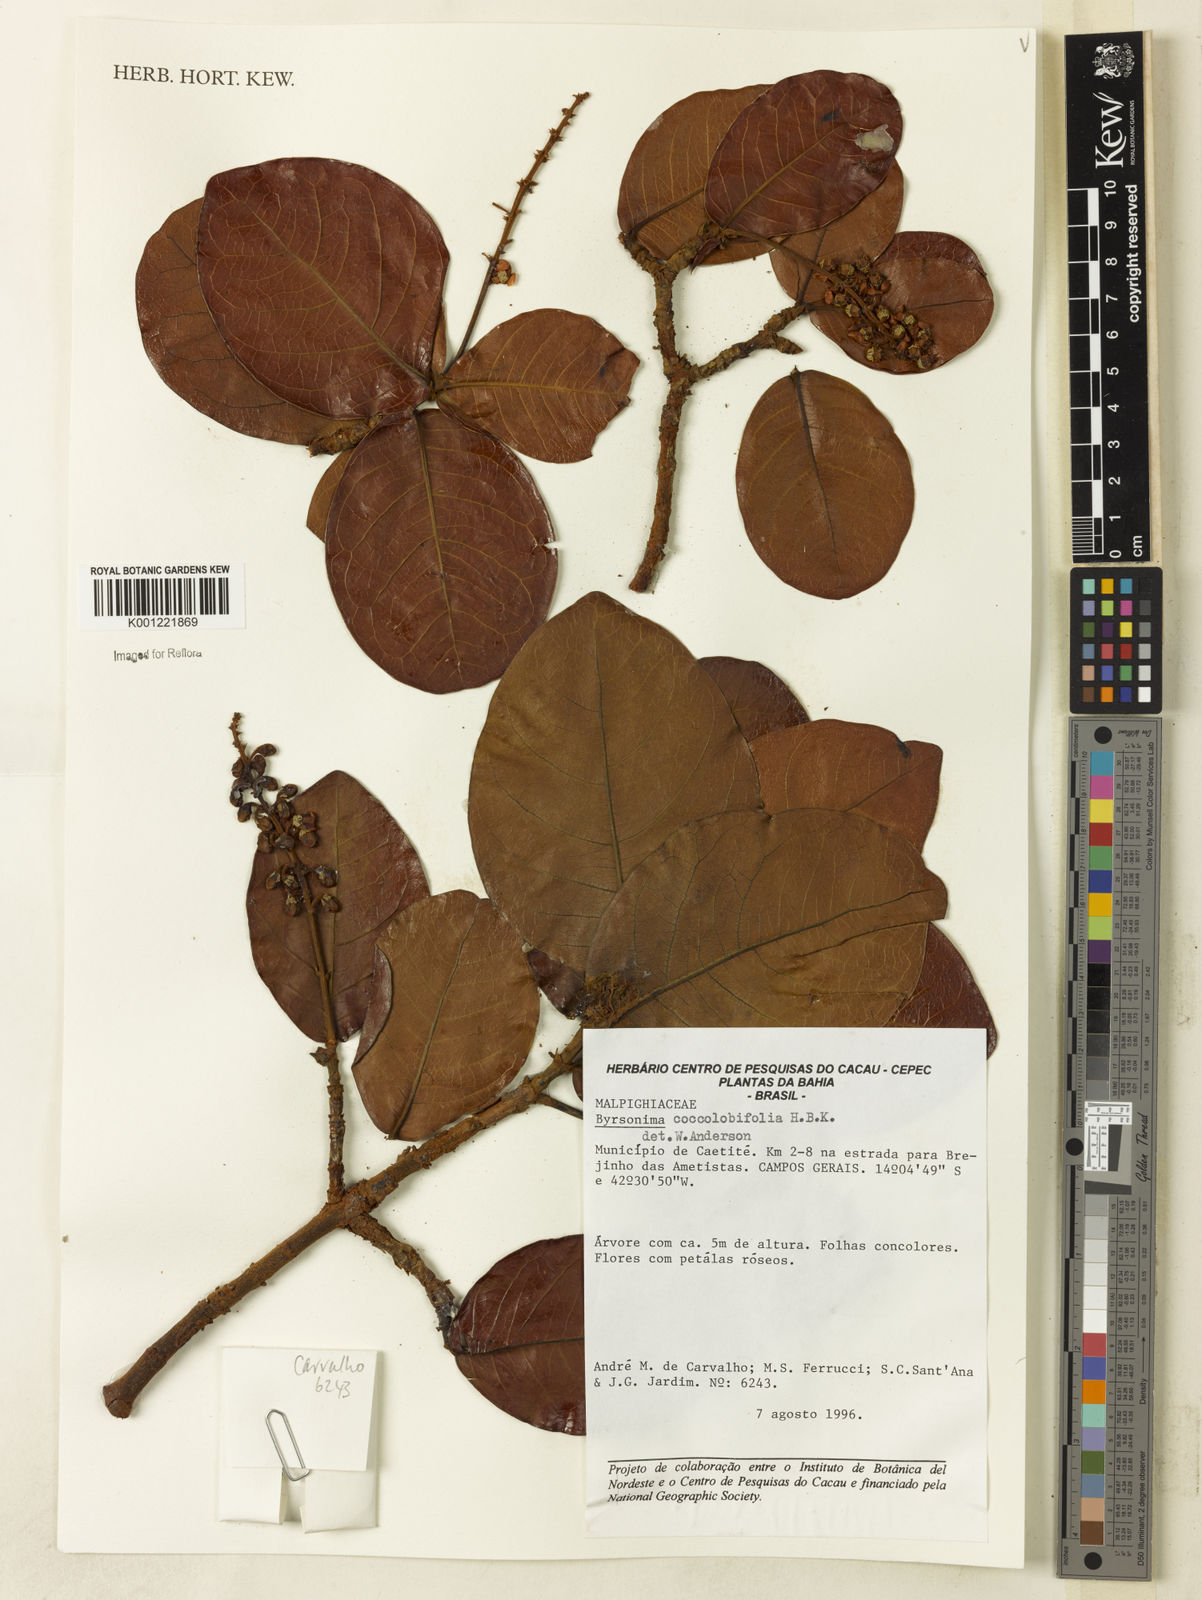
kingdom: Plantae
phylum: Tracheophyta
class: Magnoliopsida
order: Malpighiales
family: Malpighiaceae
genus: Byrsonima
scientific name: Byrsonima coccolobifolia
